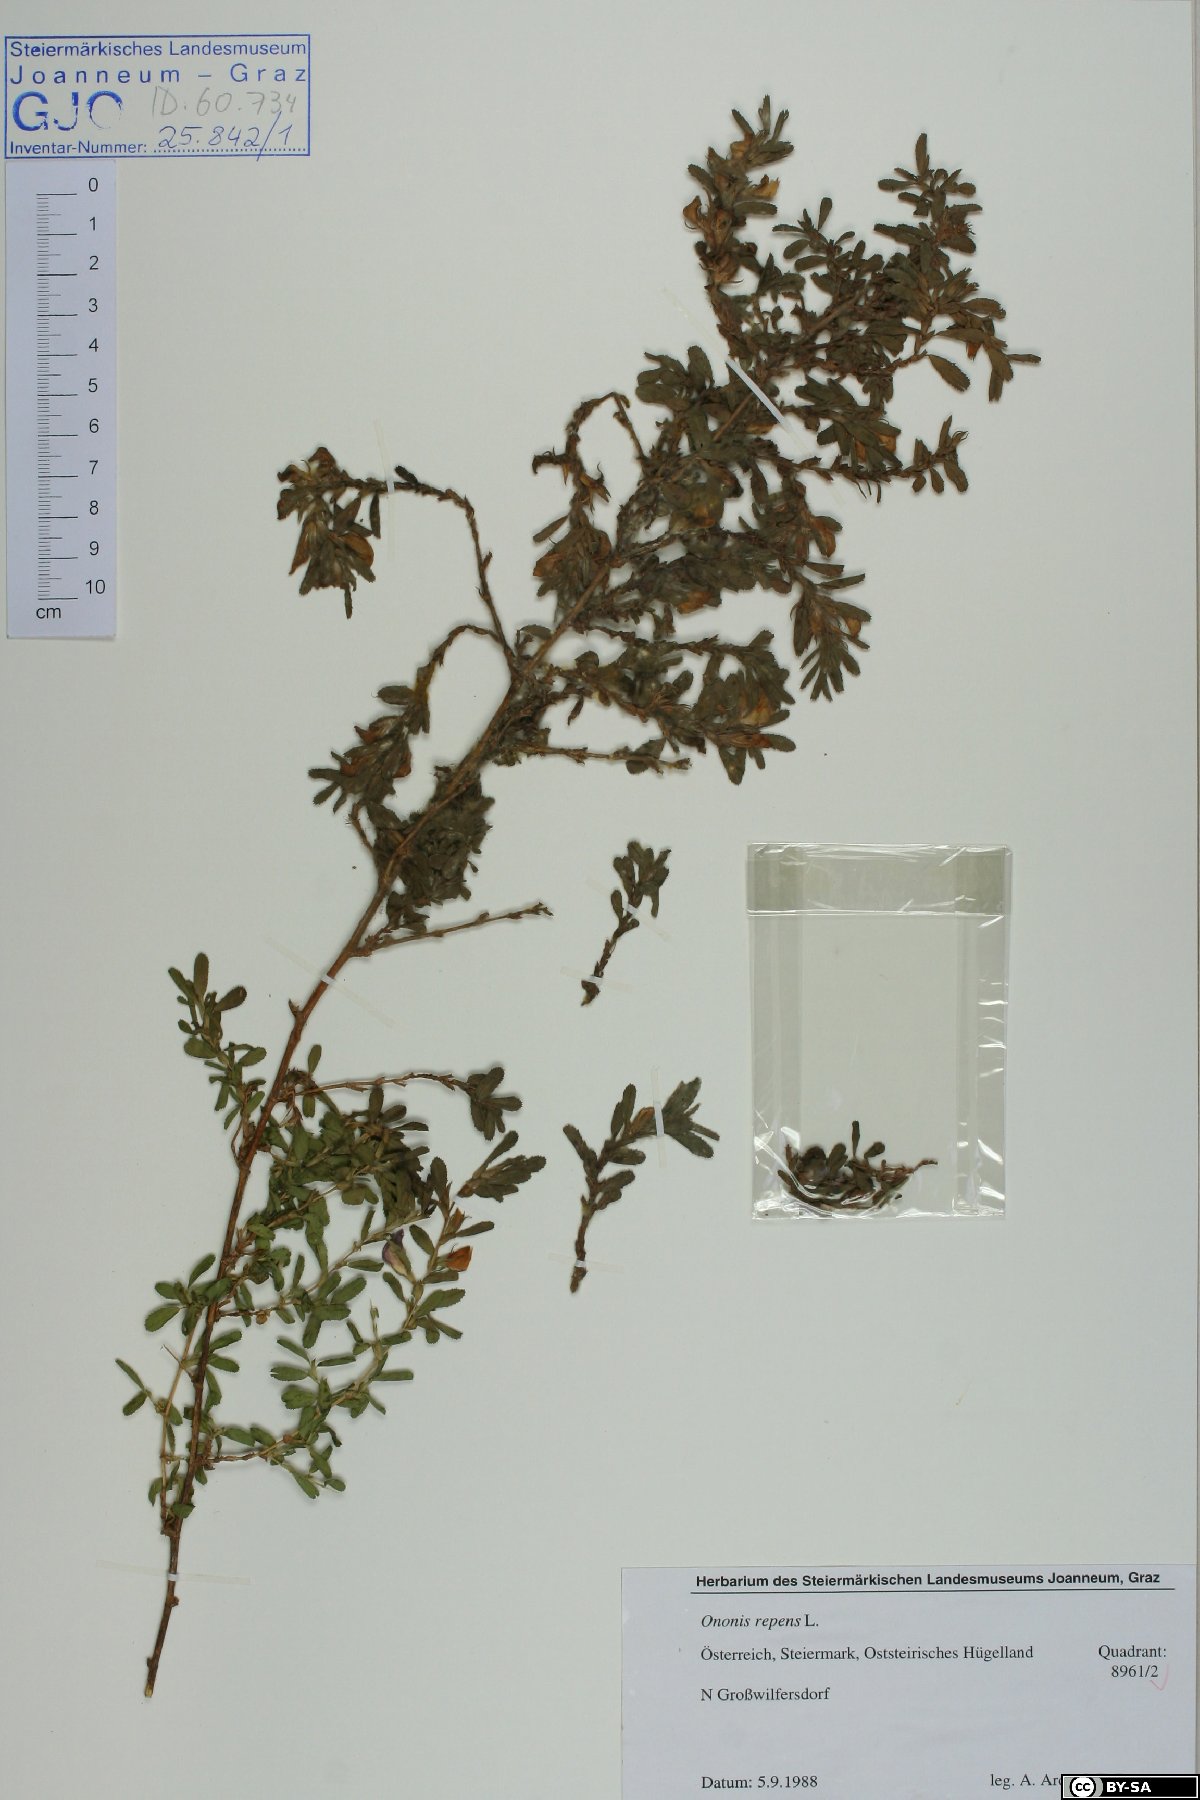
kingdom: Plantae
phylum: Tracheophyta
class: Magnoliopsida
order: Fabales
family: Fabaceae
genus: Ononis
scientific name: Ononis spinosa
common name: Spiny restharrow
